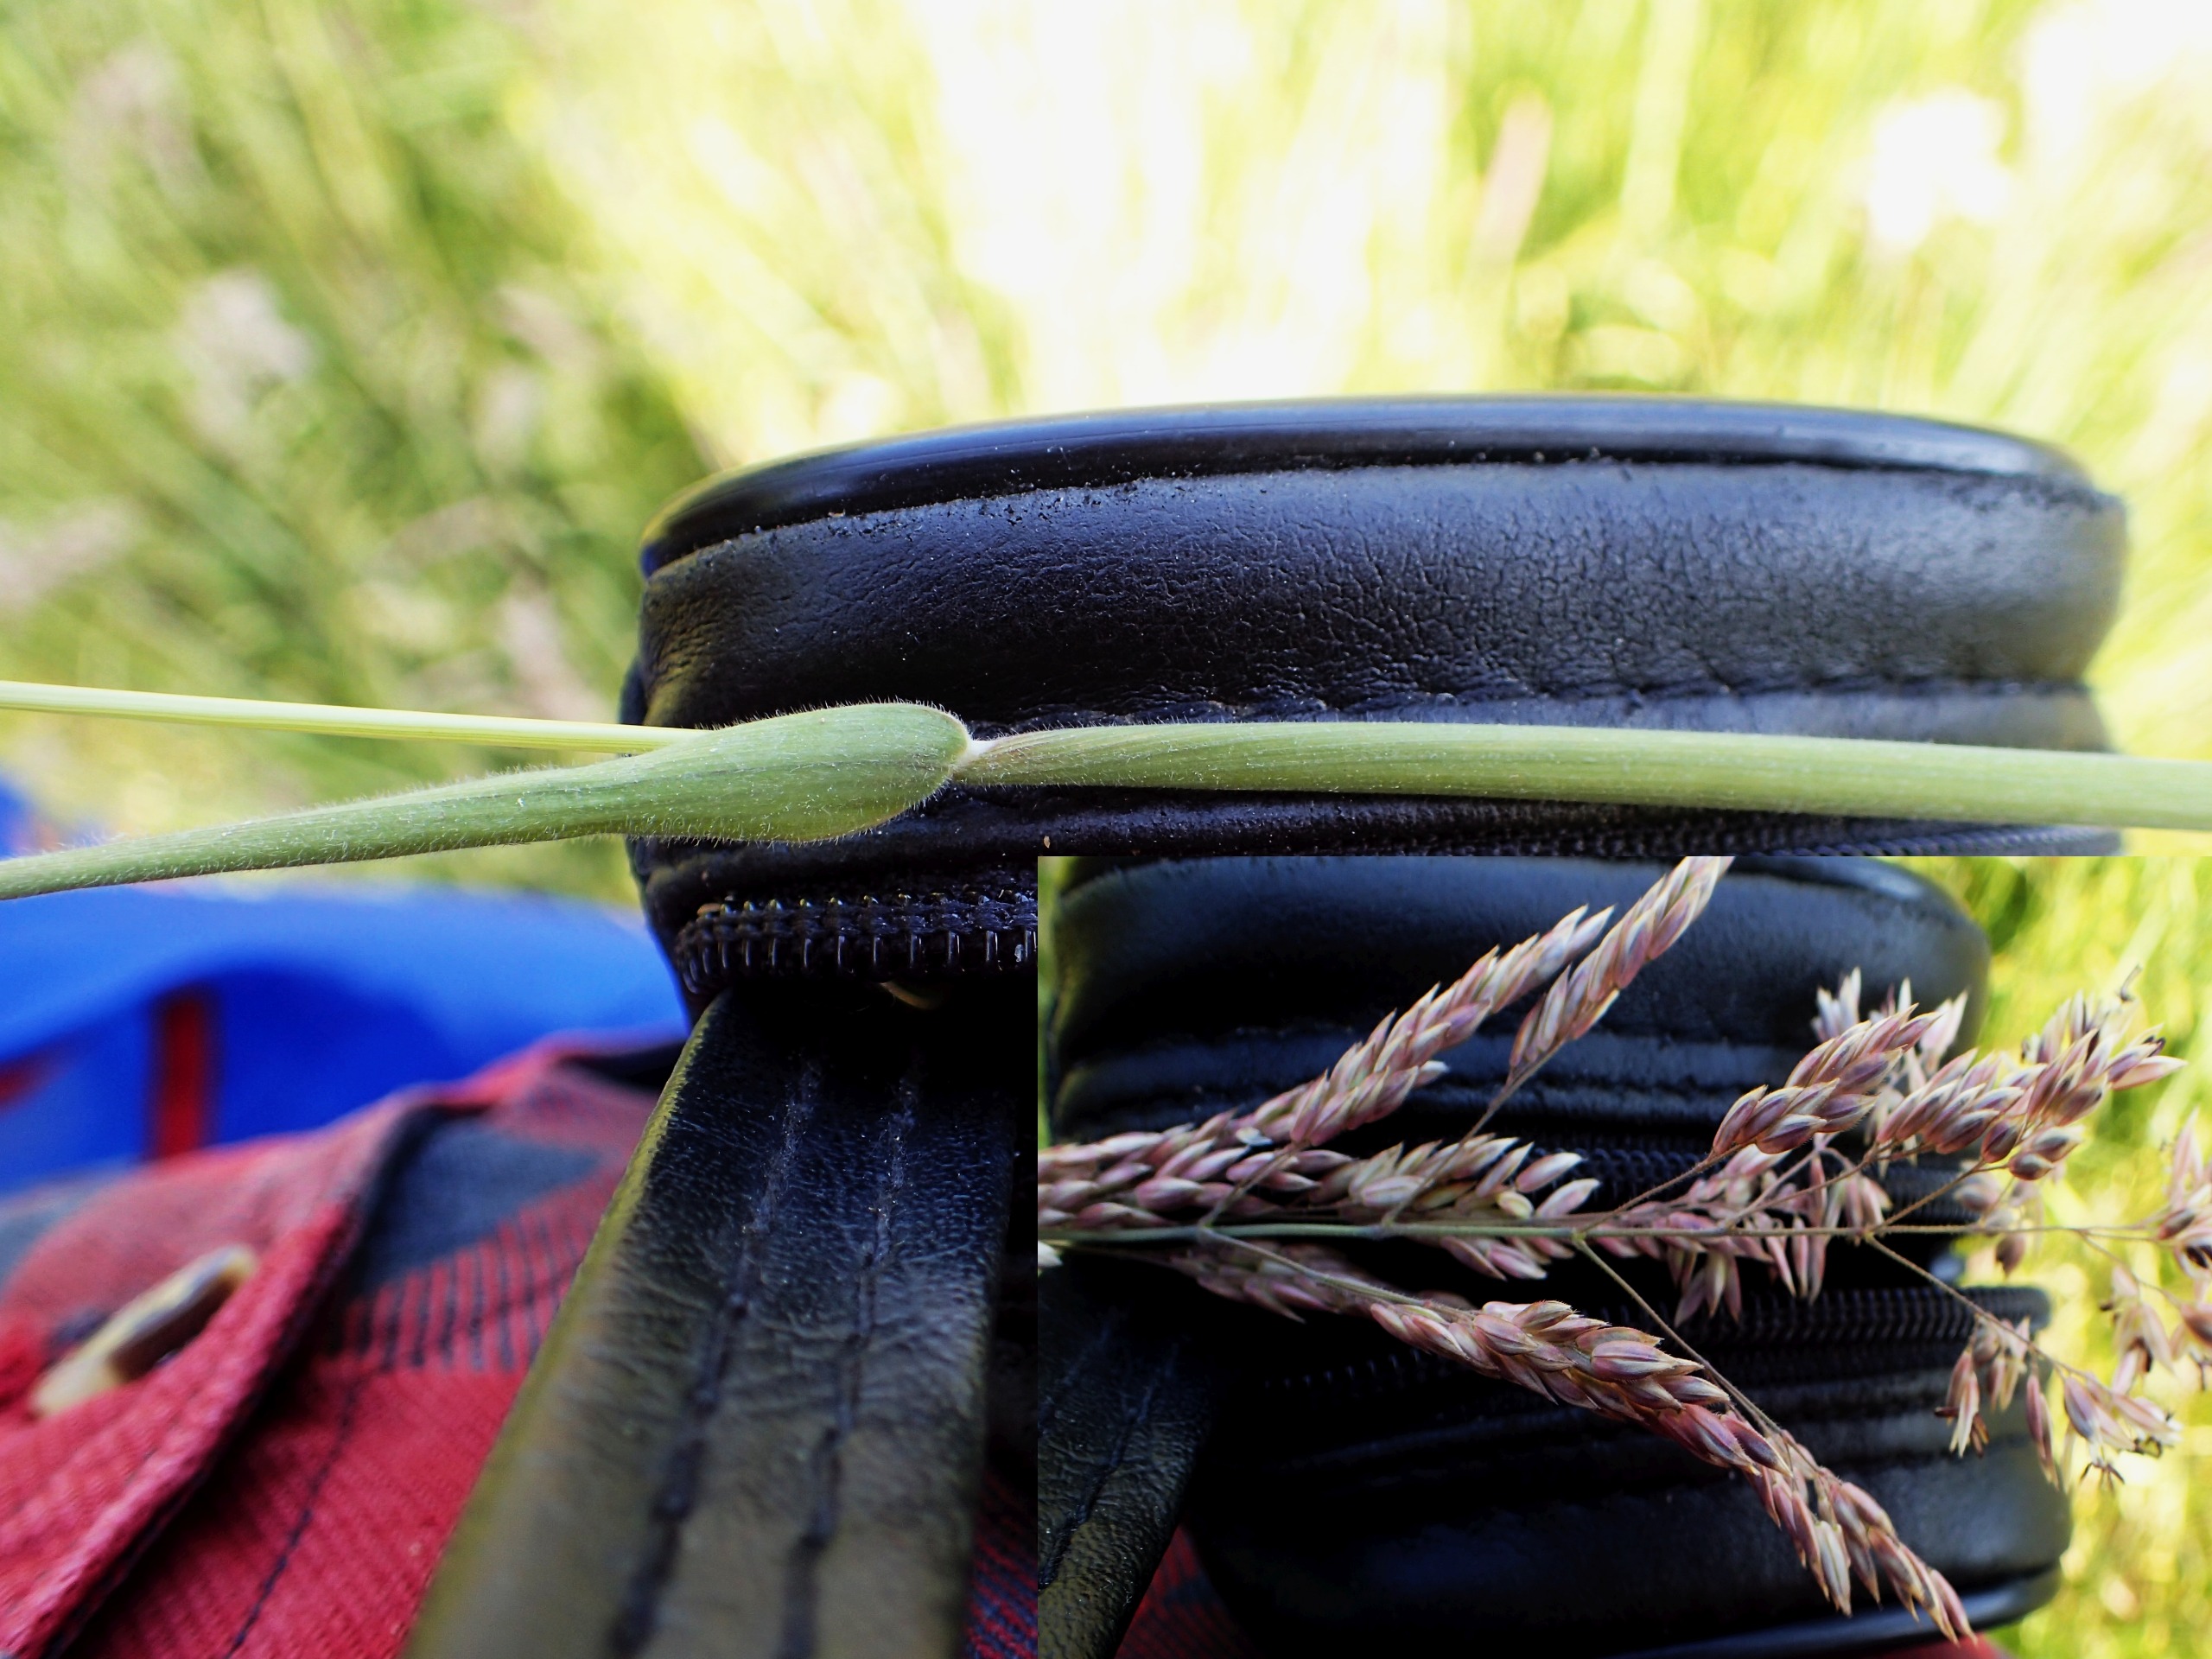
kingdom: Plantae
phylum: Tracheophyta
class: Liliopsida
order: Poales
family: Poaceae
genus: Holcus
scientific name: Holcus lanatus
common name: Fløjlsgræs
